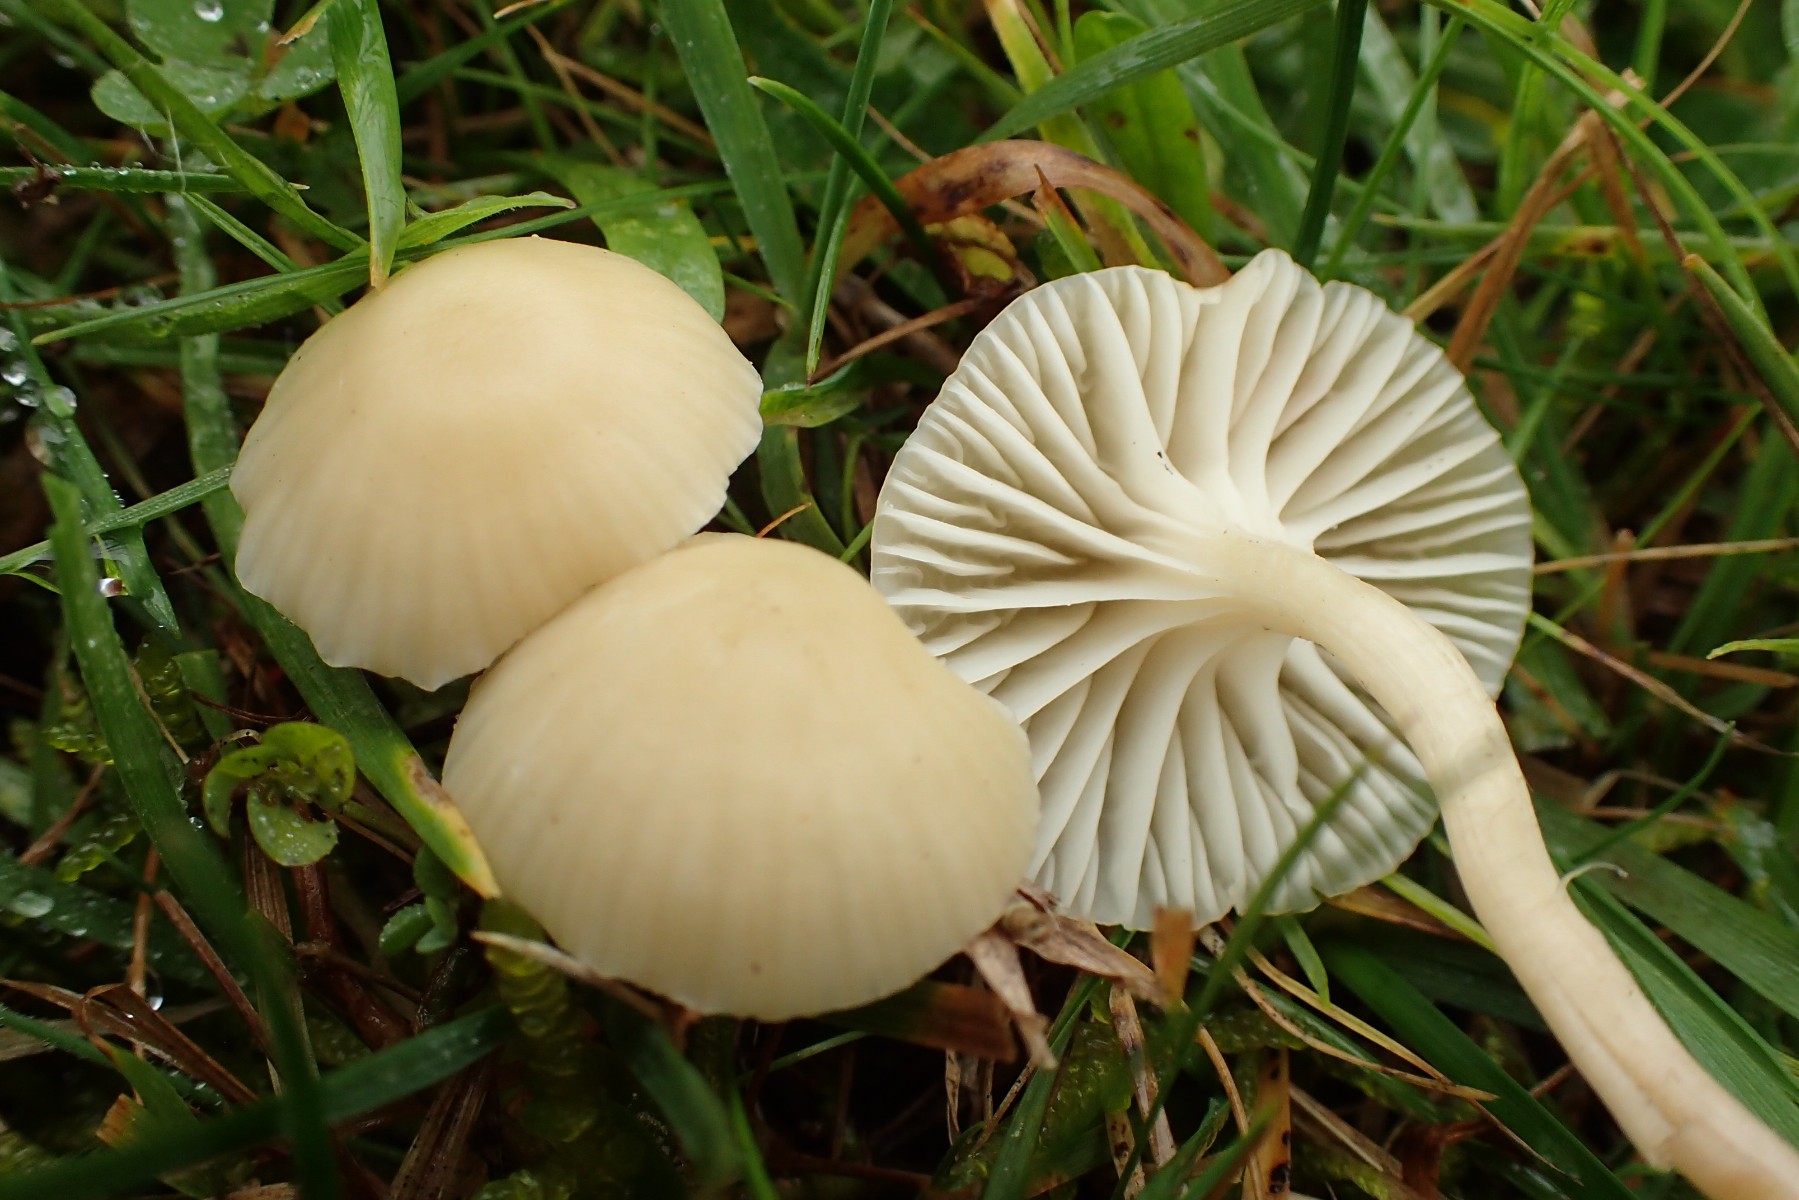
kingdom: Fungi
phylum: Basidiomycota
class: Agaricomycetes
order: Agaricales
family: Hygrophoraceae
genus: Cuphophyllus
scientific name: Cuphophyllus russocoriaceus
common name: ruslæder-vokshat
